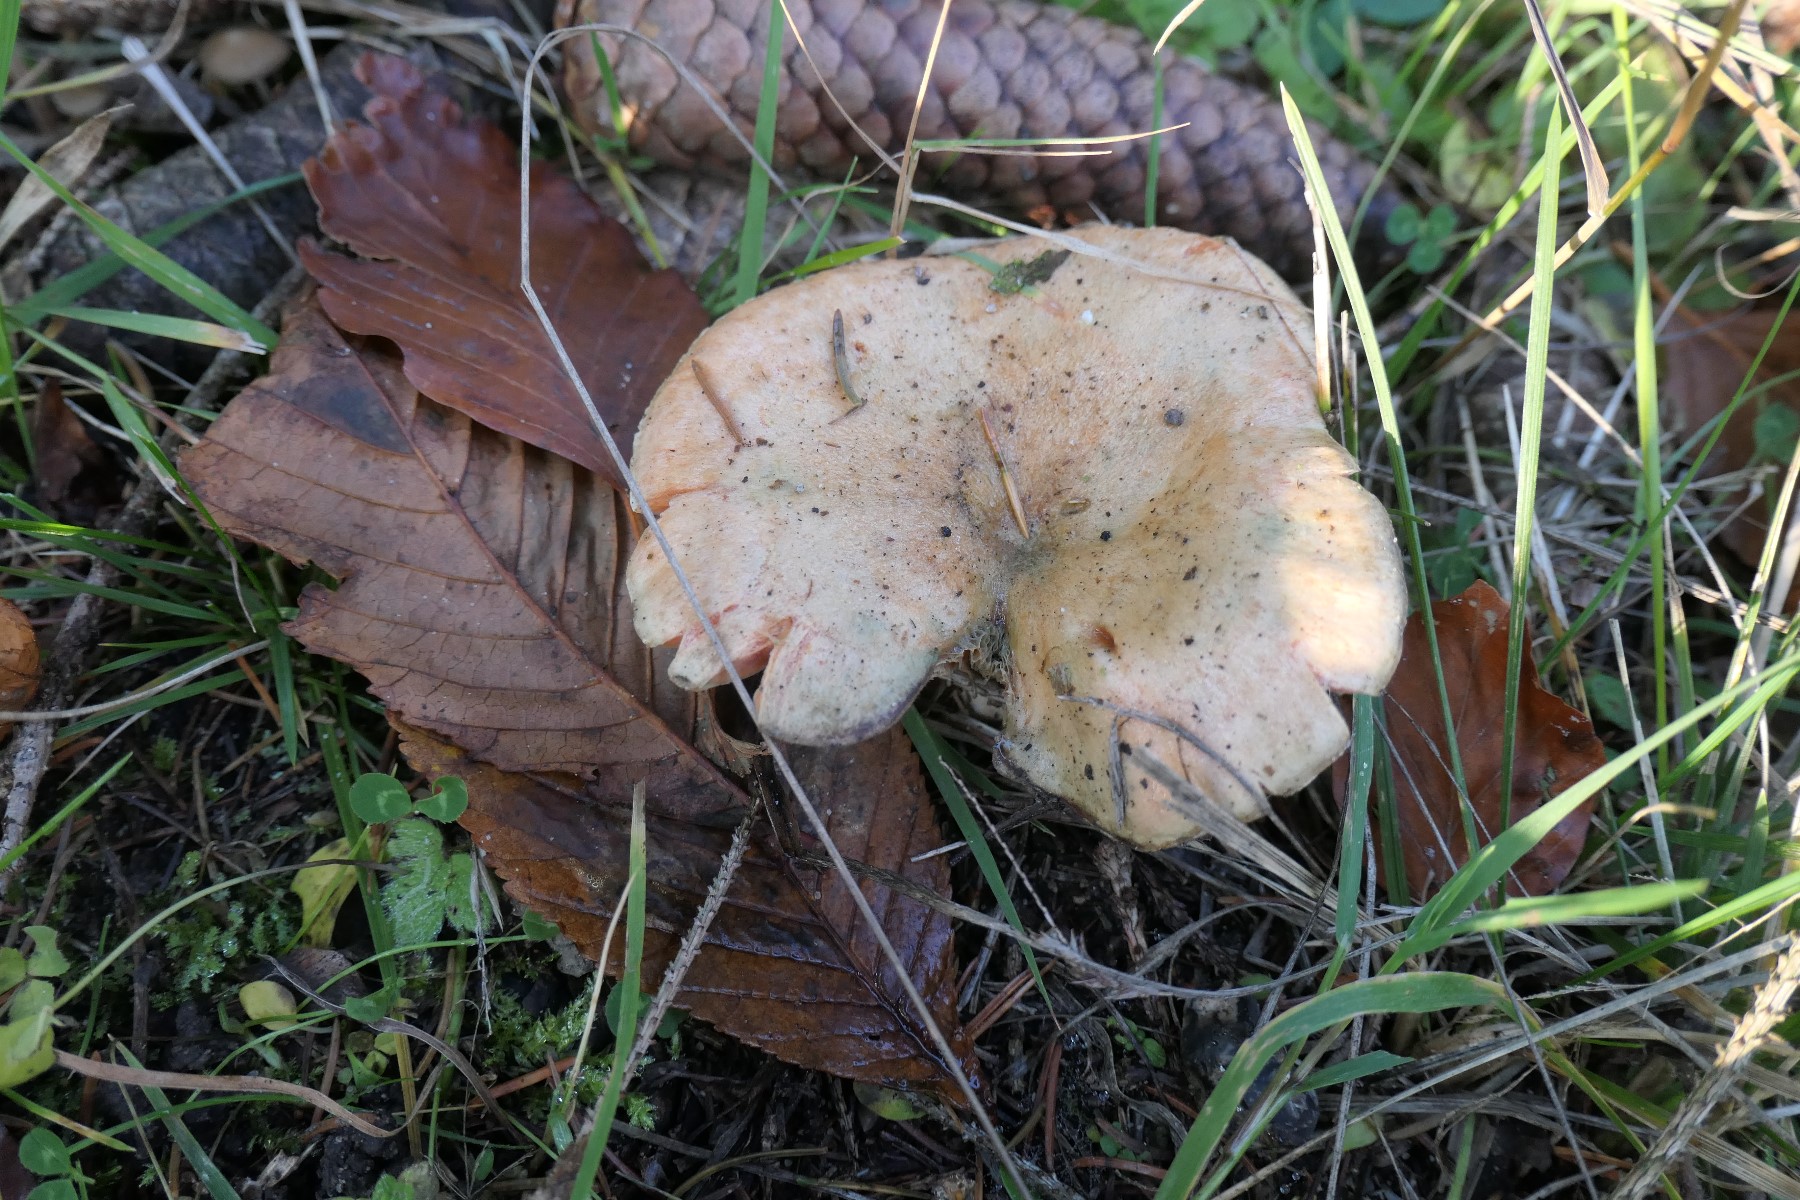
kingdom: Fungi
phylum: Basidiomycota
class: Agaricomycetes
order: Russulales
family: Russulaceae
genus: Lactarius
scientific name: Lactarius deterrimus
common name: gran-mælkehat
